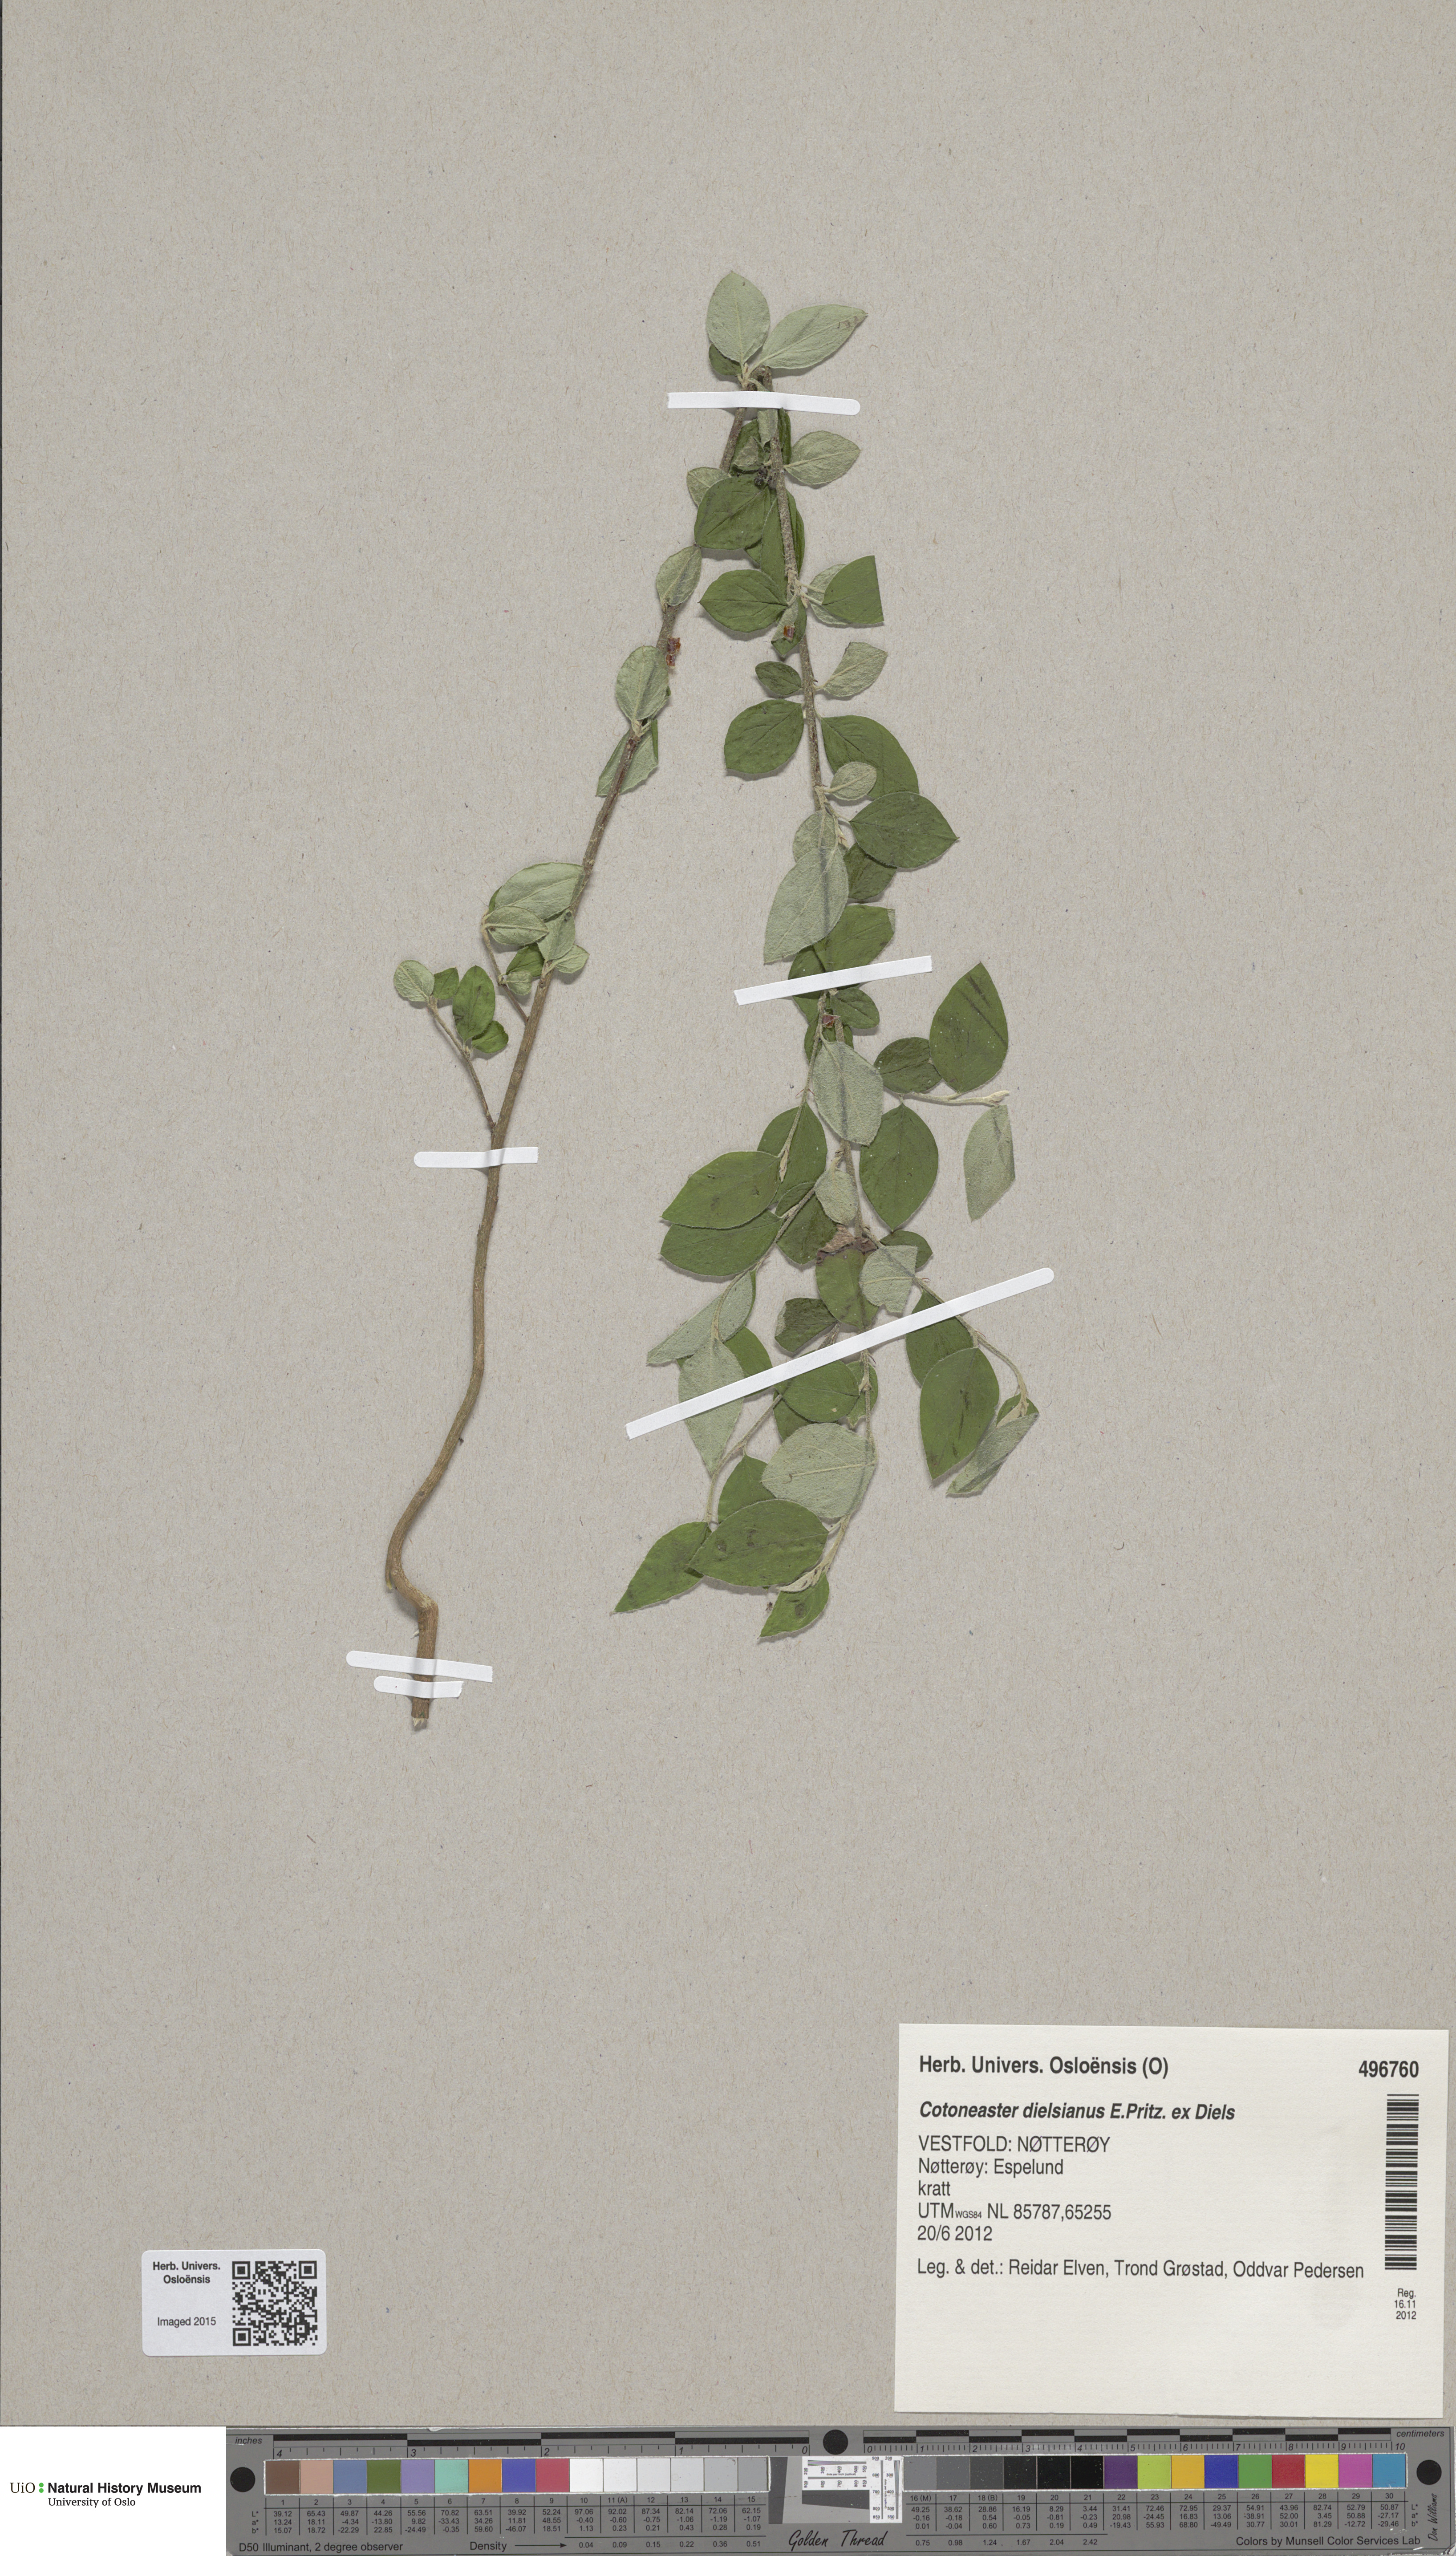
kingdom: Plantae
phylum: Tracheophyta
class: Magnoliopsida
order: Rosales
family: Rosaceae
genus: Cotoneaster
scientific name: Cotoneaster dielsianus
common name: Diels's cotoneaster
